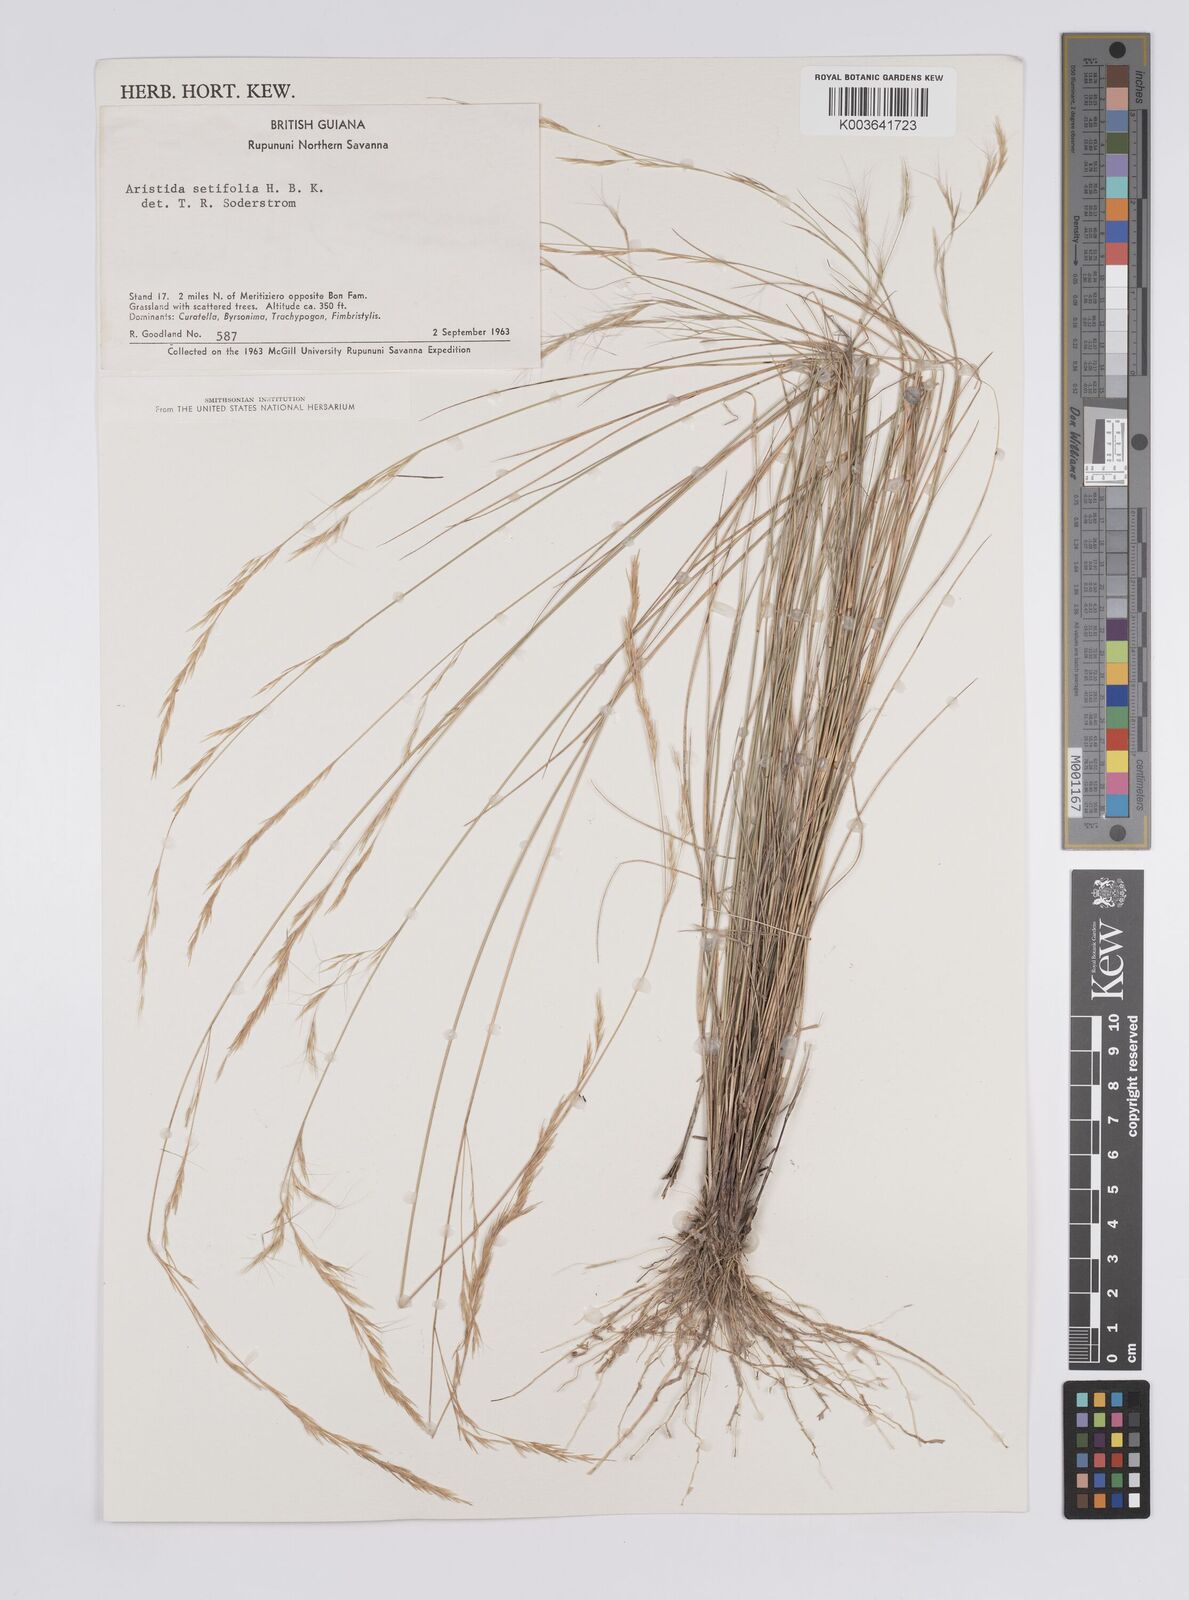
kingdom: Plantae
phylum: Tracheophyta
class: Liliopsida
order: Poales
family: Poaceae
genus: Aristida
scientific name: Aristida setifolia
